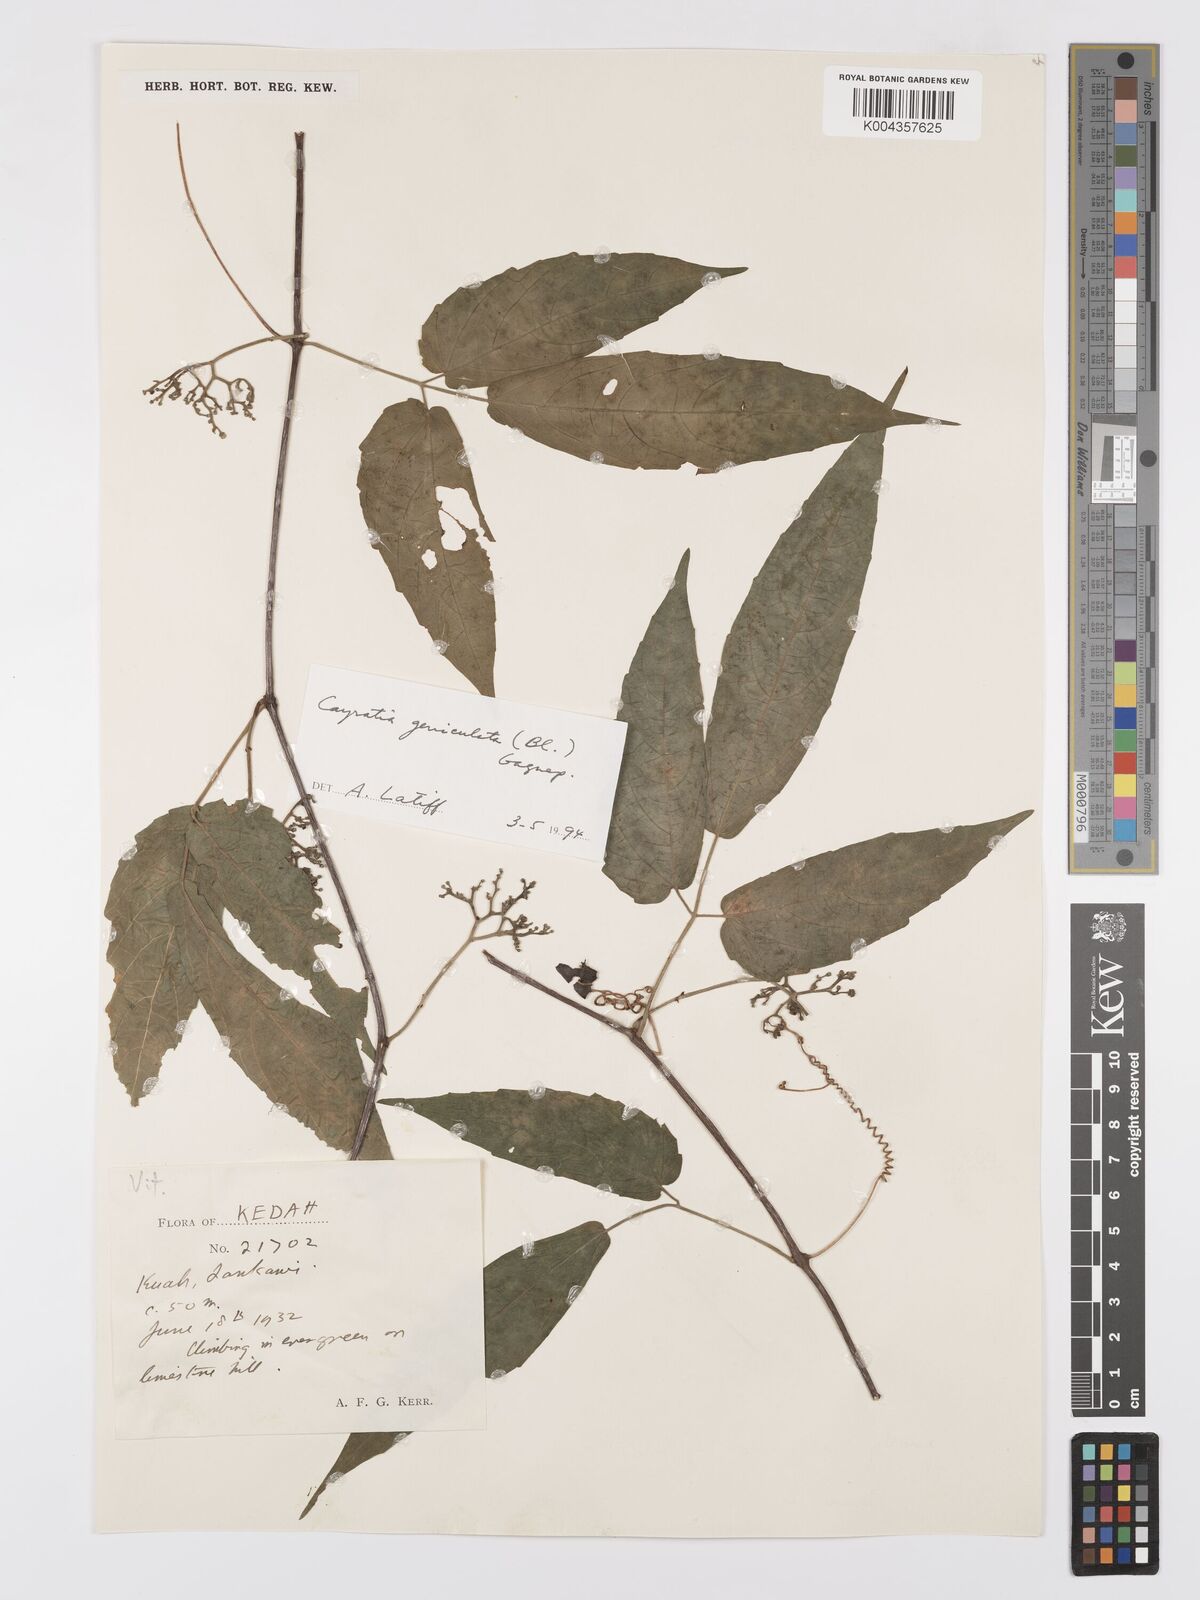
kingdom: Plantae
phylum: Tracheophyta
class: Magnoliopsida
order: Vitales
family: Vitaceae
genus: Cayratia
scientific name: Cayratia mollissima
